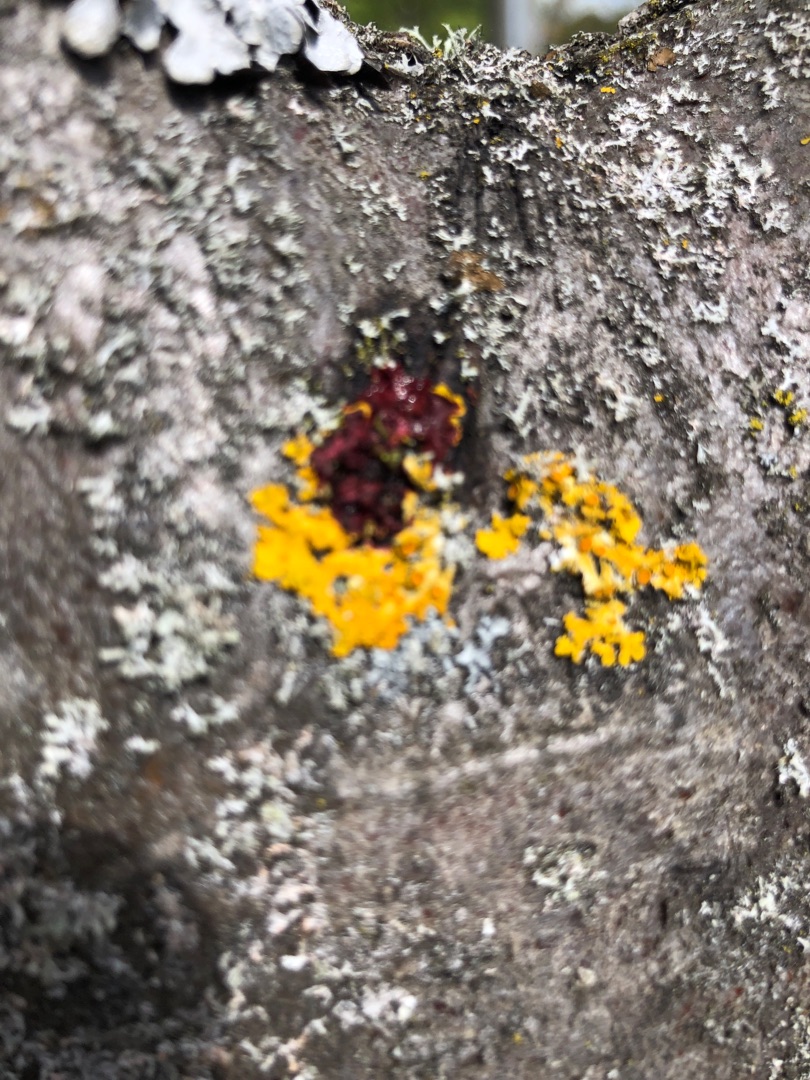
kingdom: Fungi
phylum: Ascomycota
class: Lecanoromycetes
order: Teloschistales
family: Teloschistaceae
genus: Xanthoria
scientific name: Xanthoria parietina
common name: Almindelig væggelav
